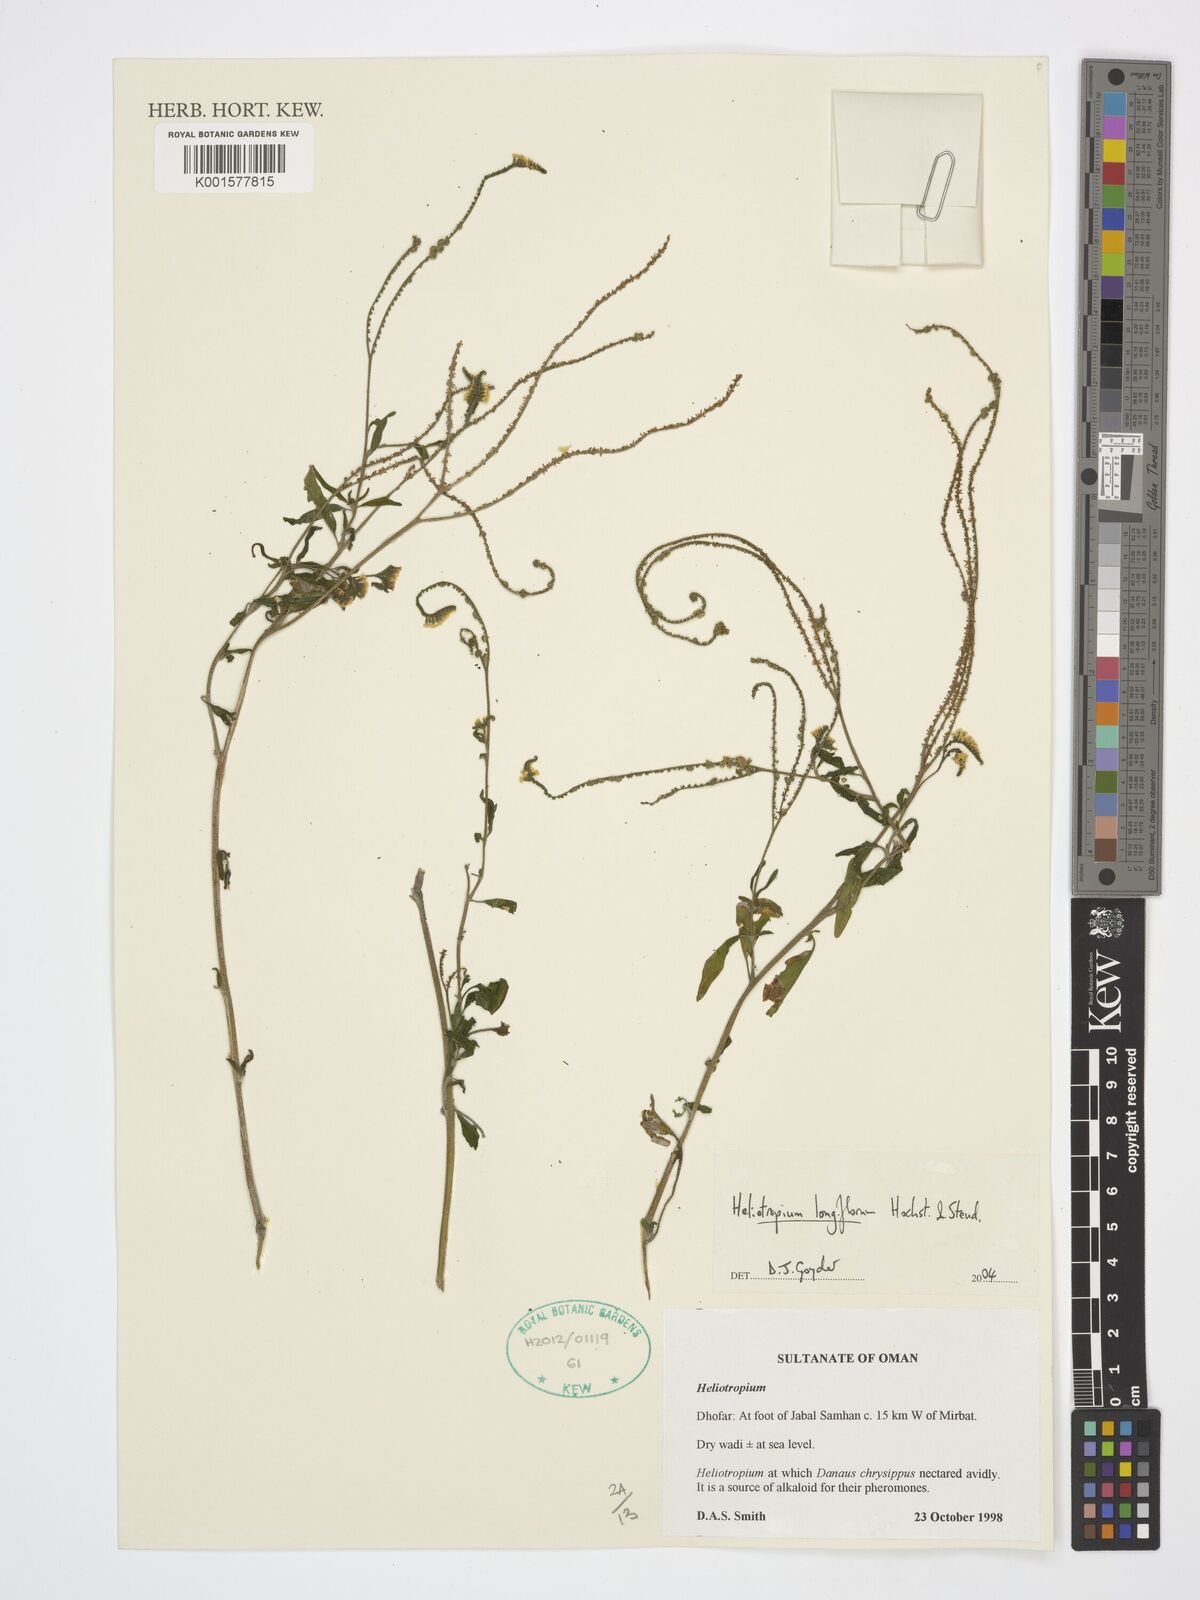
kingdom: Plantae
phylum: Tracheophyta
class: Magnoliopsida
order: Boraginales
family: Heliotropiaceae
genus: Heliotropium
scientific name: Heliotropium longiflorum
